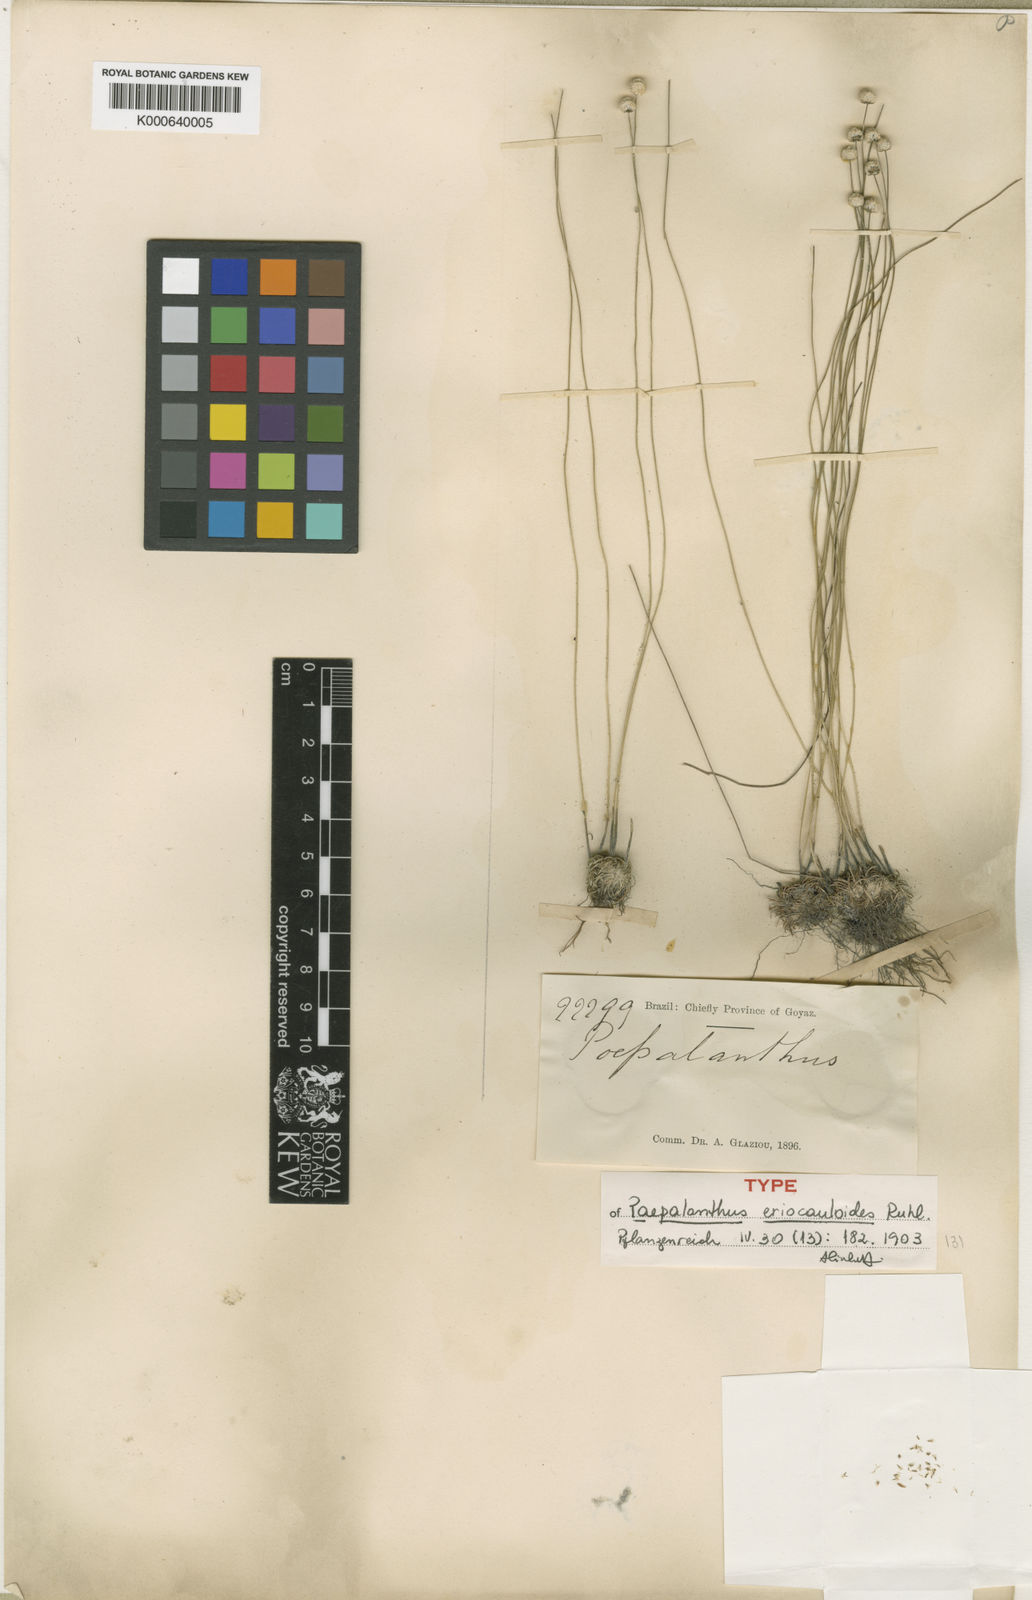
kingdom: Plantae
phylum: Tracheophyta
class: Liliopsida
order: Poales
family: Eriocaulaceae
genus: Paepalanthus
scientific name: Paepalanthus eriocauloides
